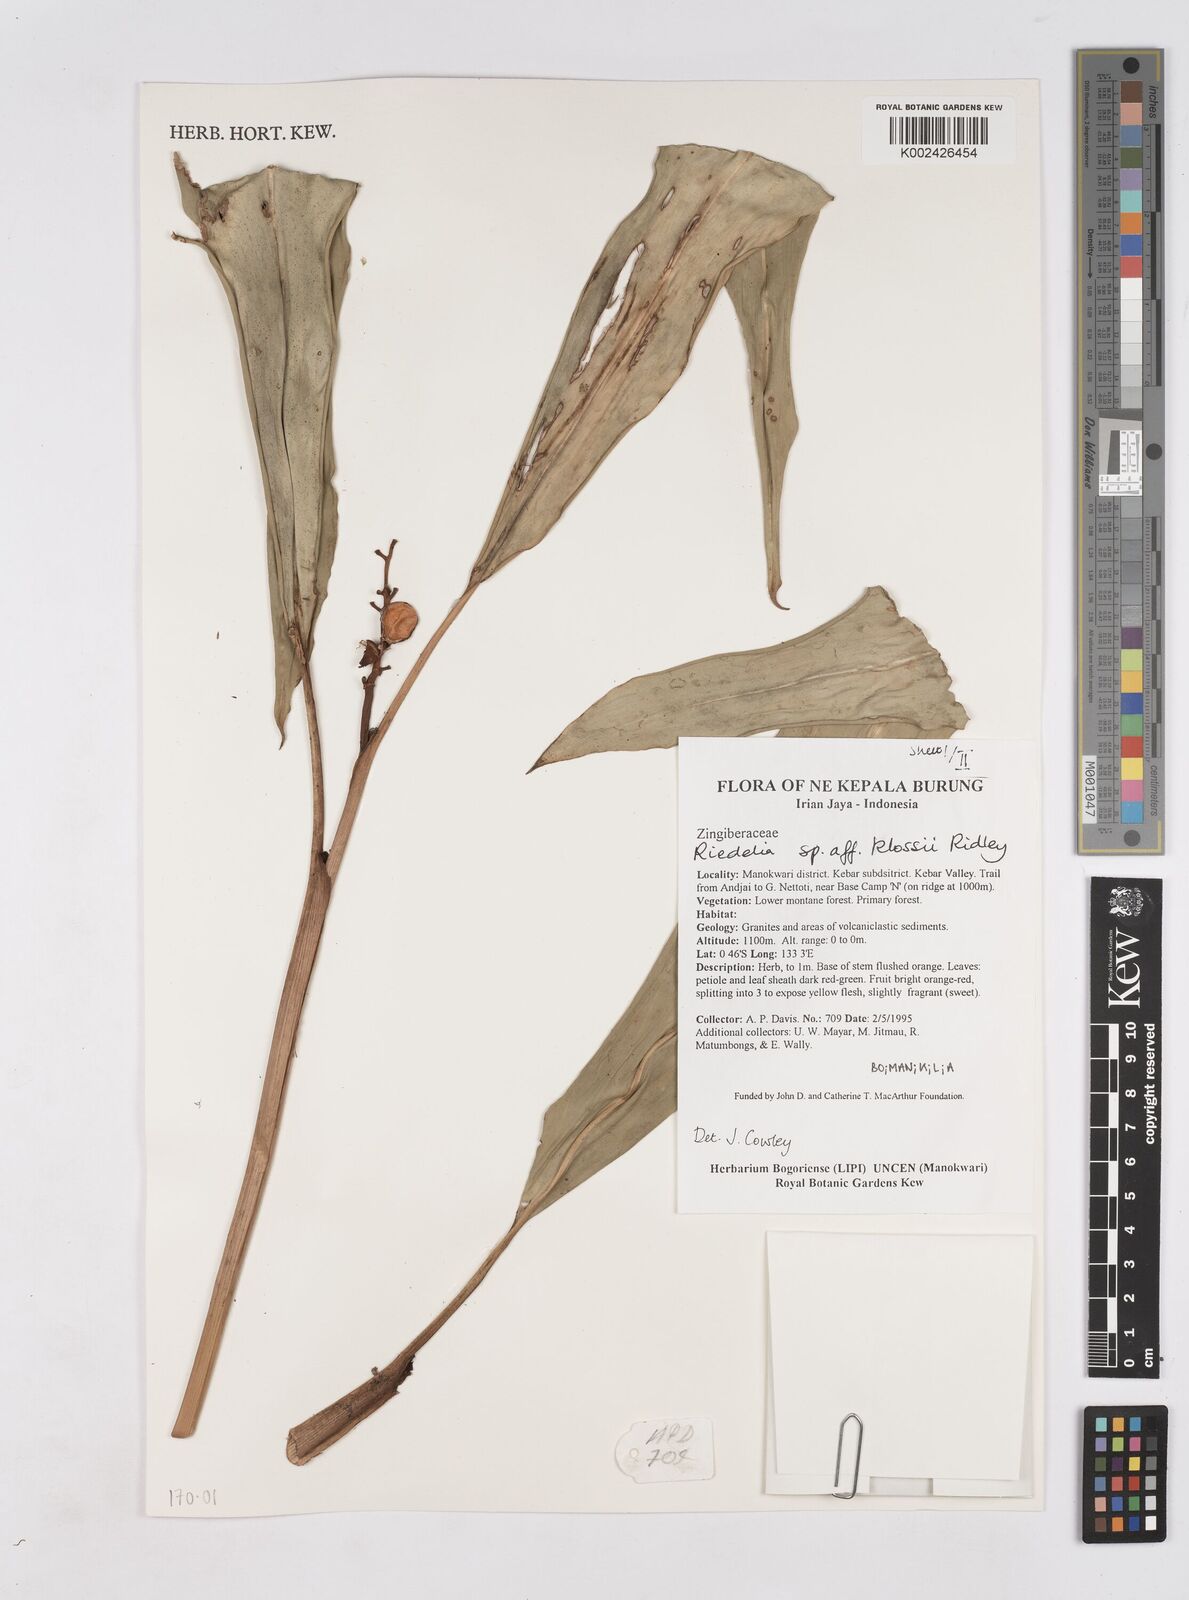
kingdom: Plantae
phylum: Tracheophyta
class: Liliopsida
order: Zingiberales
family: Zingiberaceae
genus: Riedelia
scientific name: Riedelia klossii
